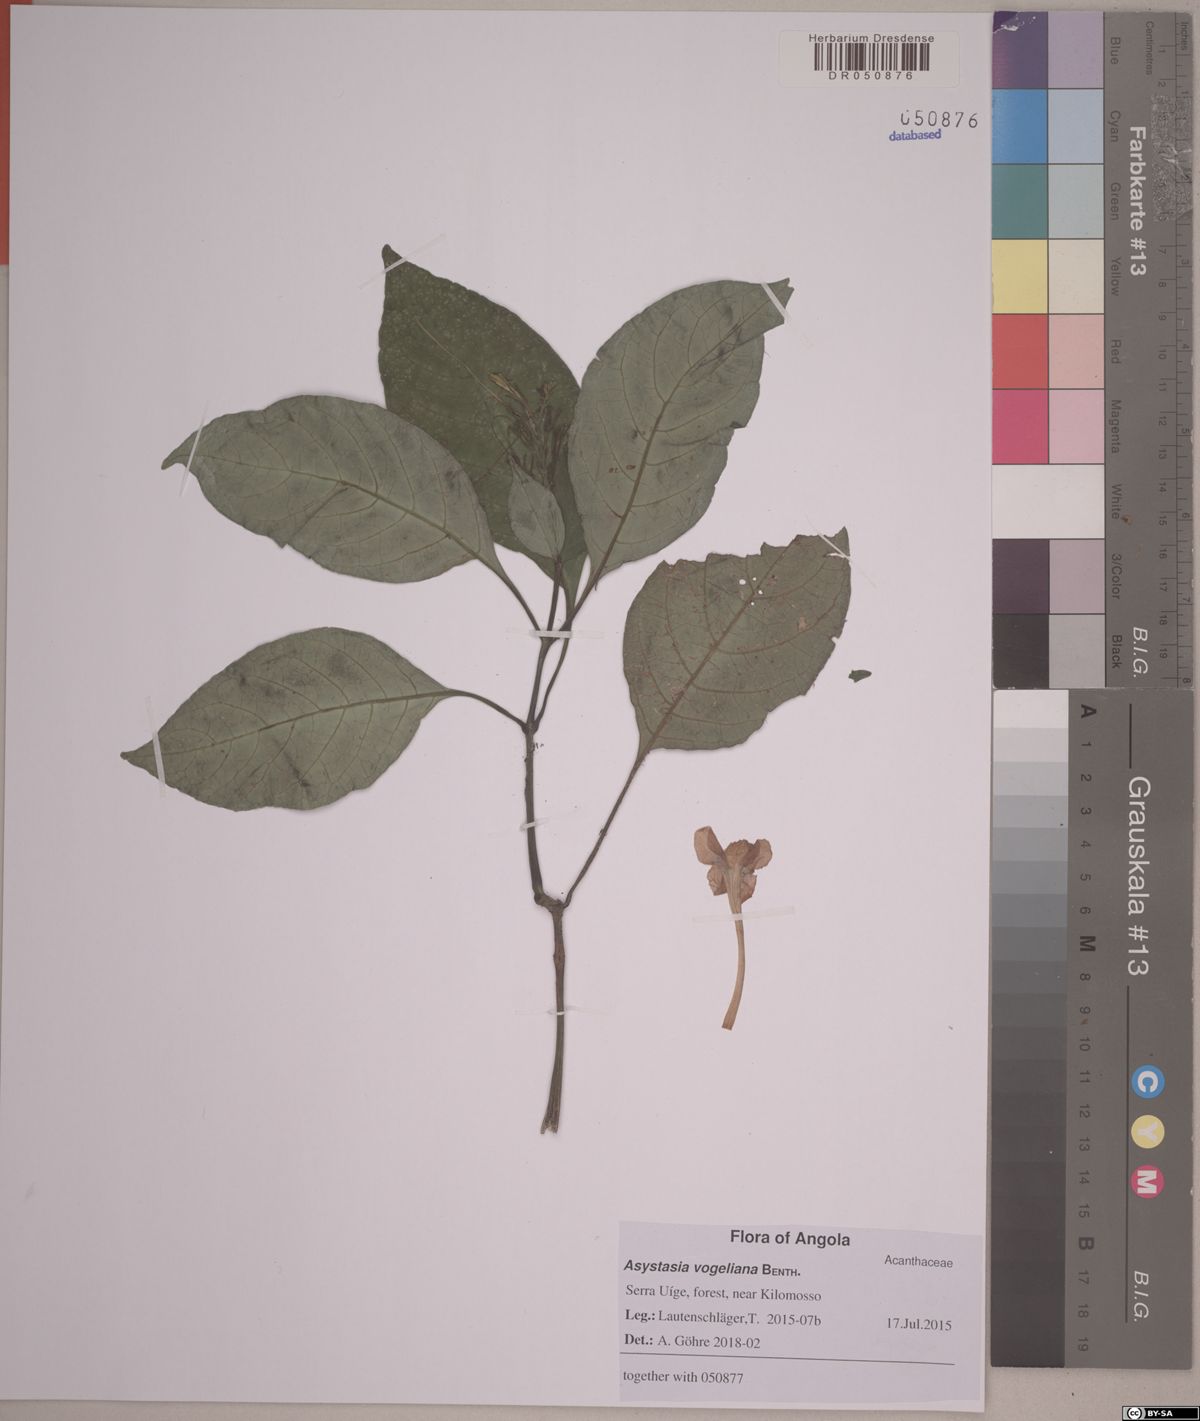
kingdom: Plantae
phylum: Tracheophyta
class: Magnoliopsida
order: Lamiales
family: Acanthaceae
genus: Asystasia
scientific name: Asystasia vogeliana
